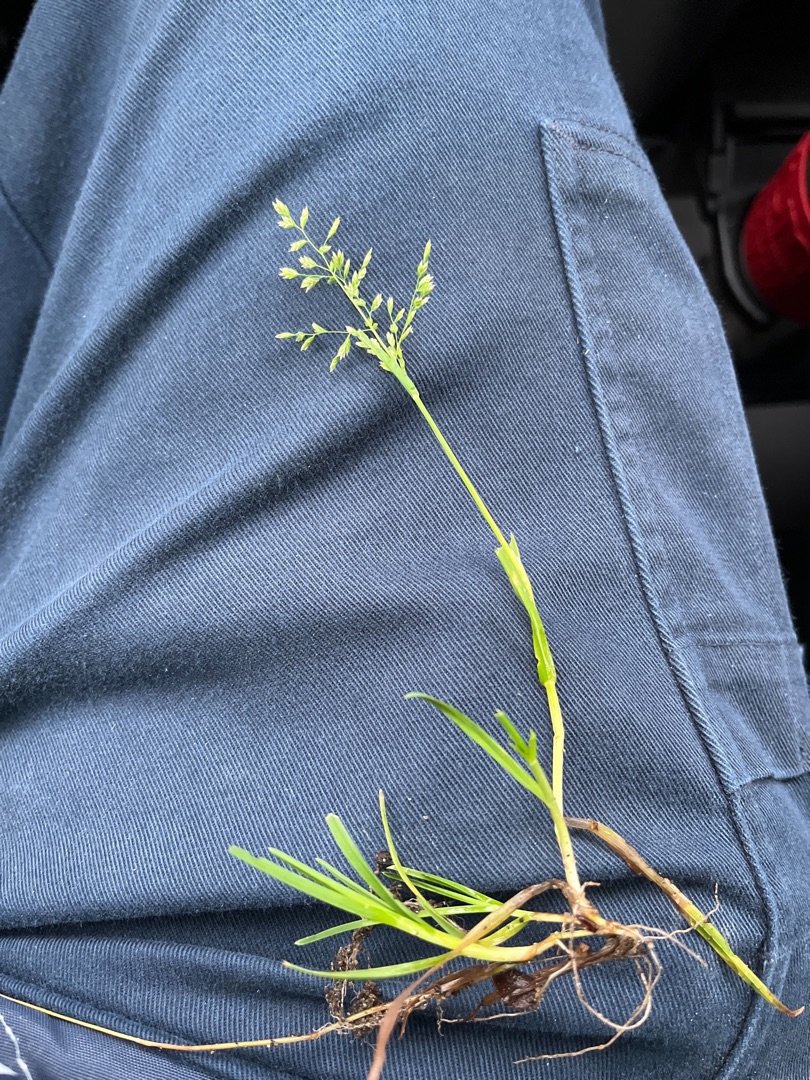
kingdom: Plantae
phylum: Tracheophyta
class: Liliopsida
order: Poales
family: Poaceae
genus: Poa
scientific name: Poa annua
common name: Enårig rapgræs
